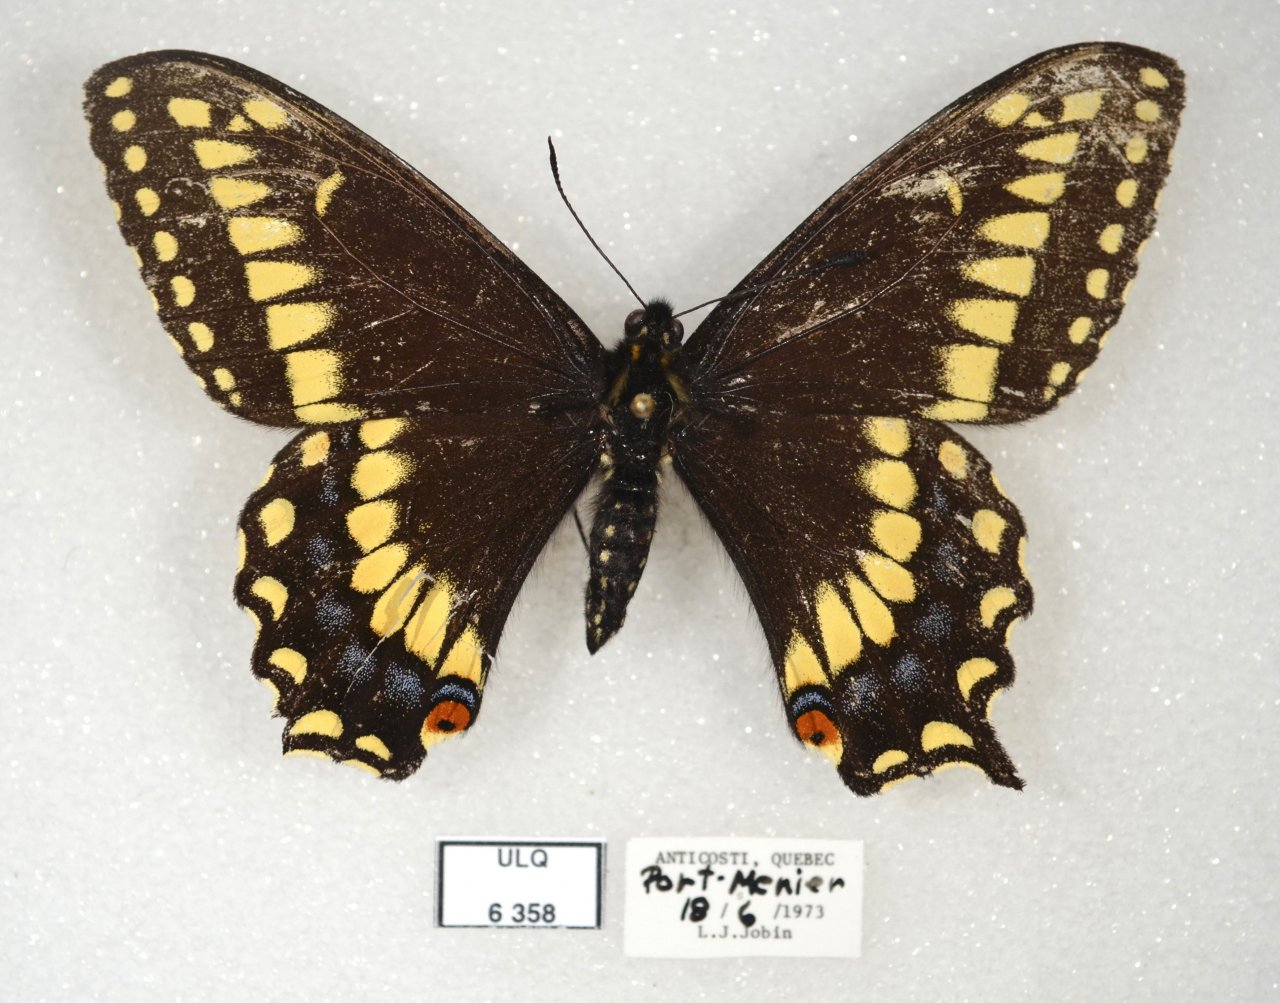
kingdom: Animalia
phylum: Arthropoda
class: Insecta
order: Lepidoptera
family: Papilionidae
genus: Papilio
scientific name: Papilio brevicauda
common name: Short-tailed Swallowtail
